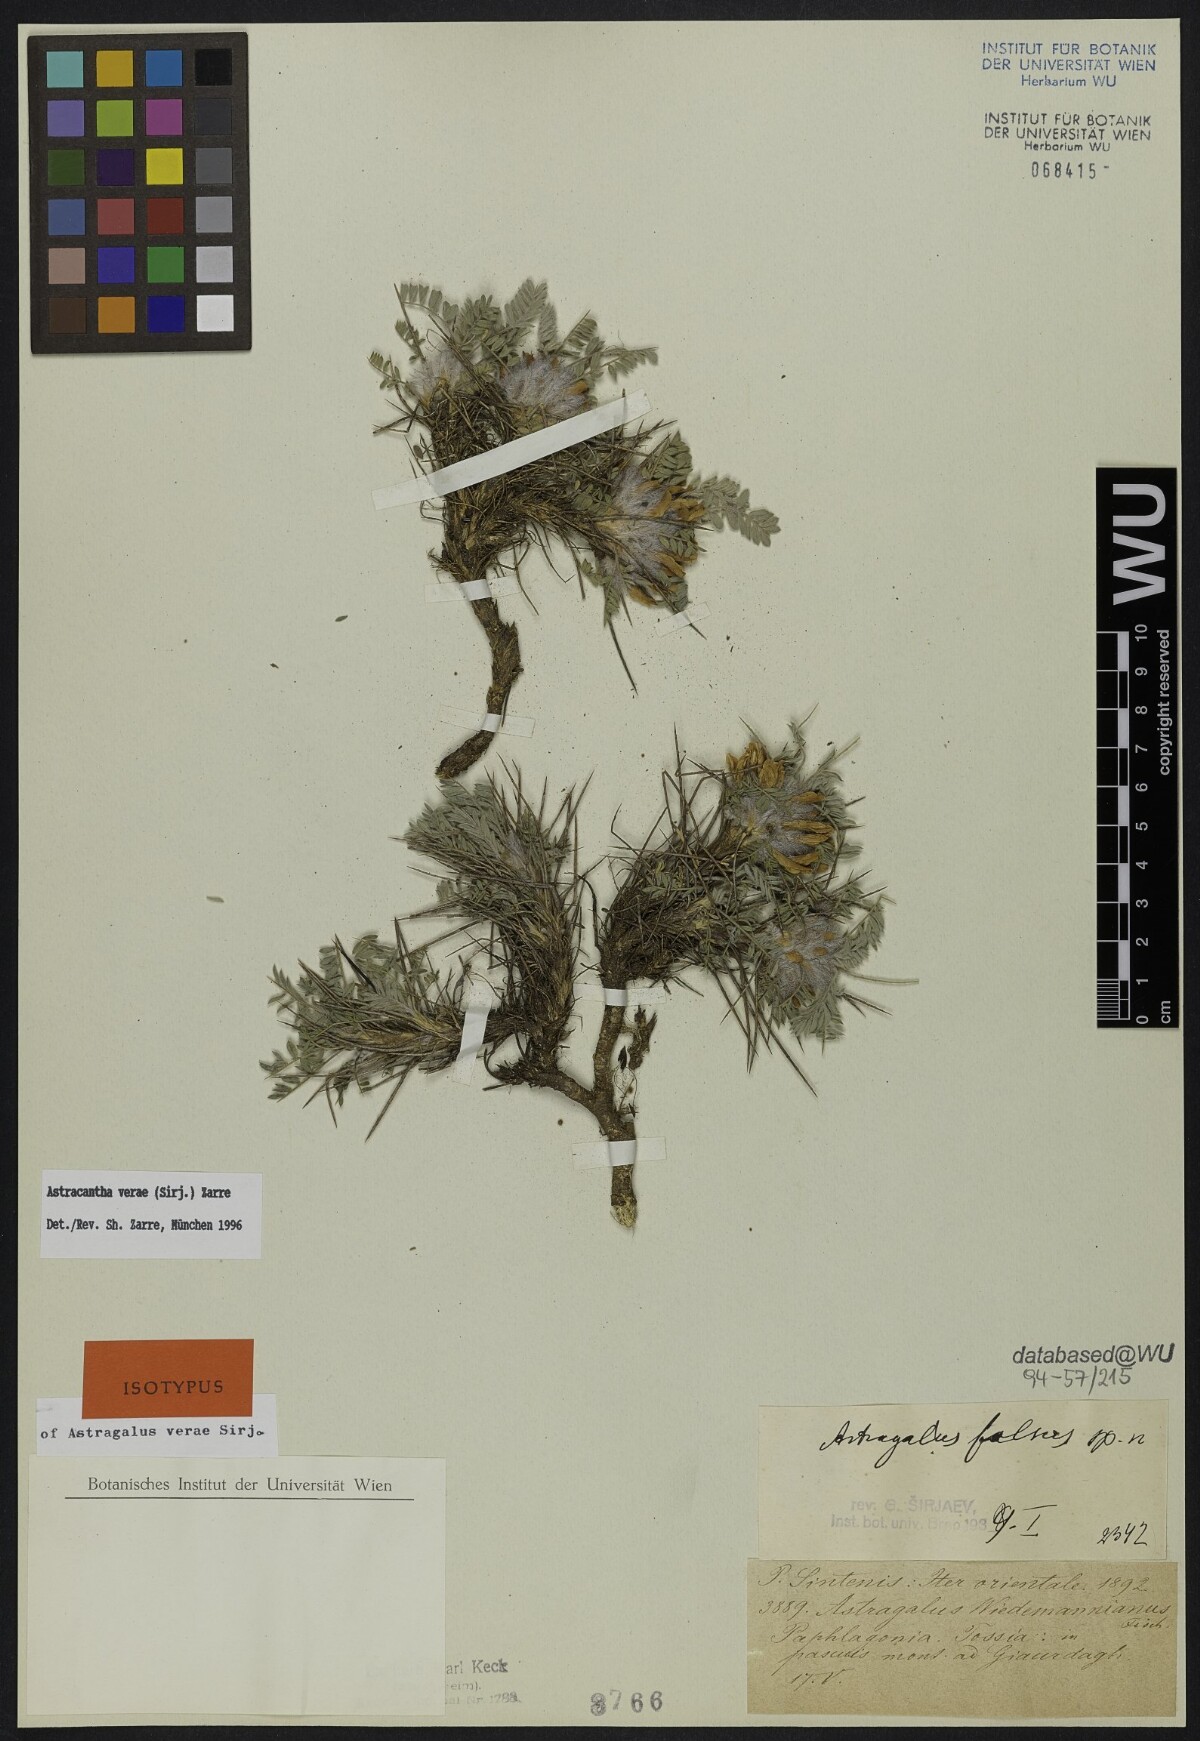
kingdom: Plantae
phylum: Tracheophyta
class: Magnoliopsida
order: Fabales
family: Fabaceae
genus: Astragalus
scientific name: Astragalus verae
